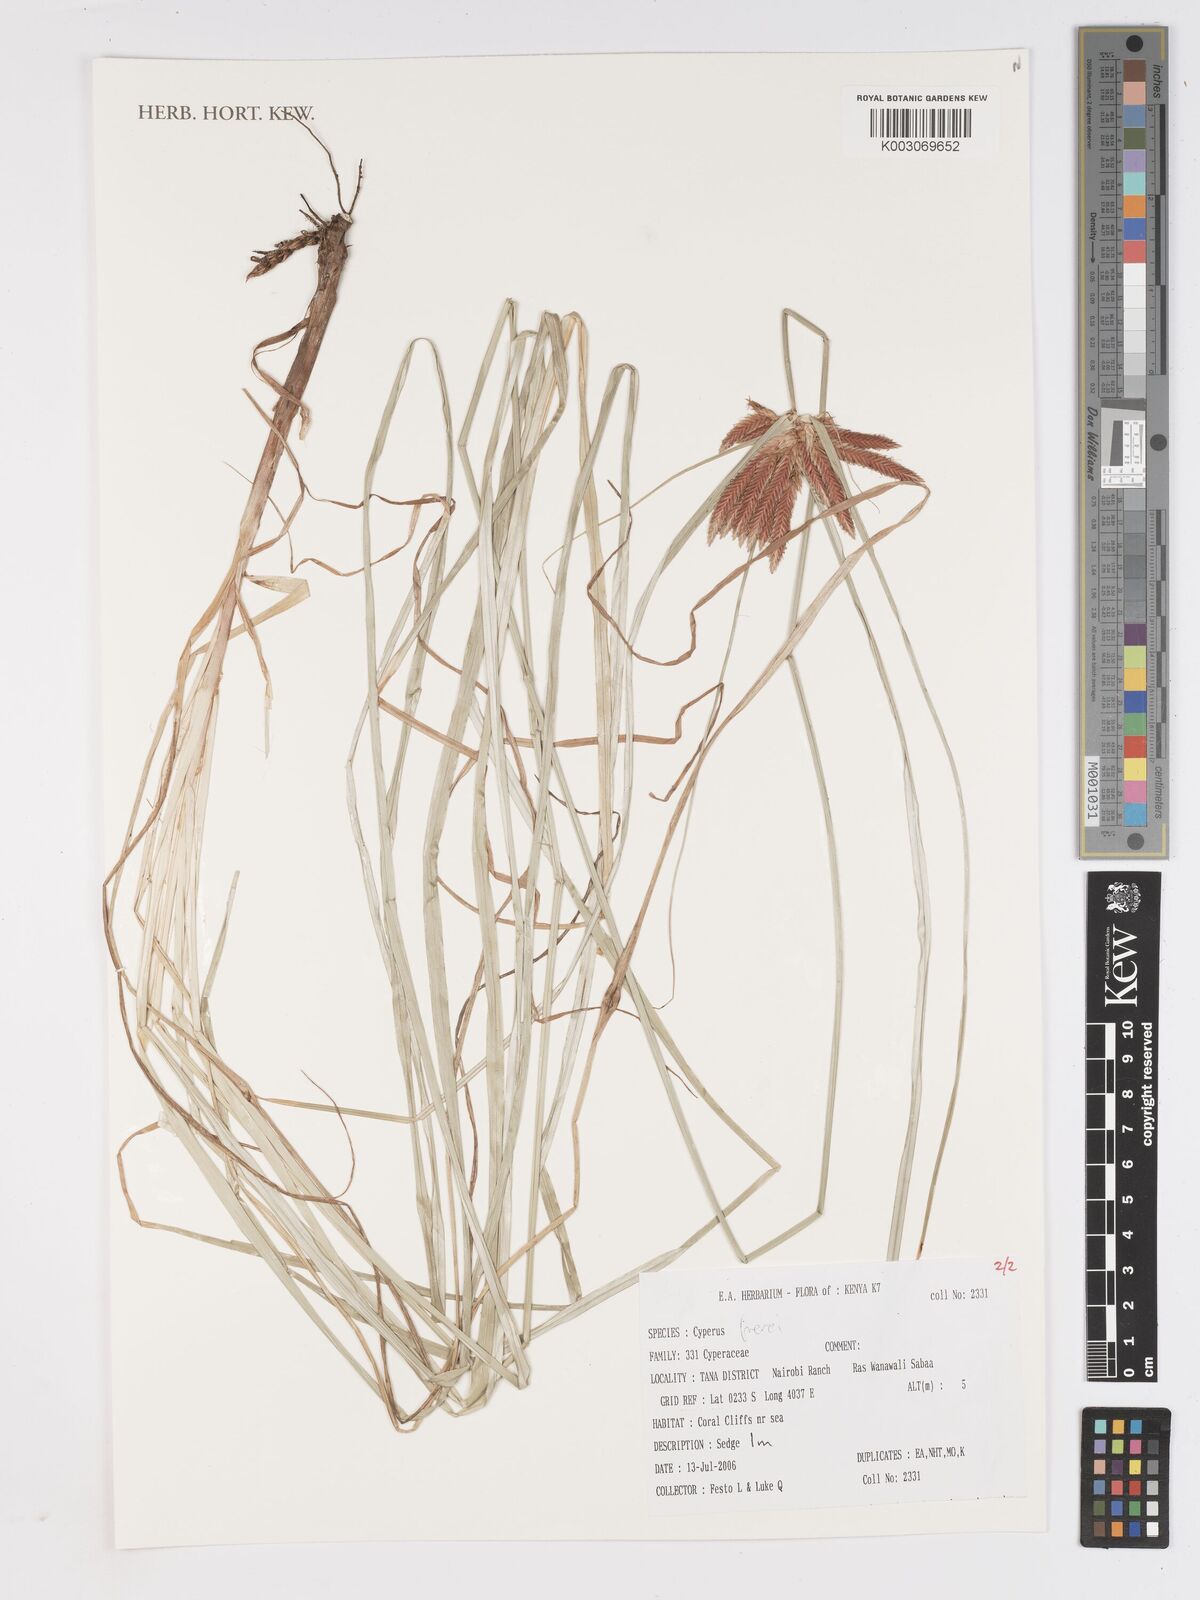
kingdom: Plantae
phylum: Tracheophyta
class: Liliopsida
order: Poales
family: Cyperaceae
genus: Cyperus
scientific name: Cyperus crassipes
